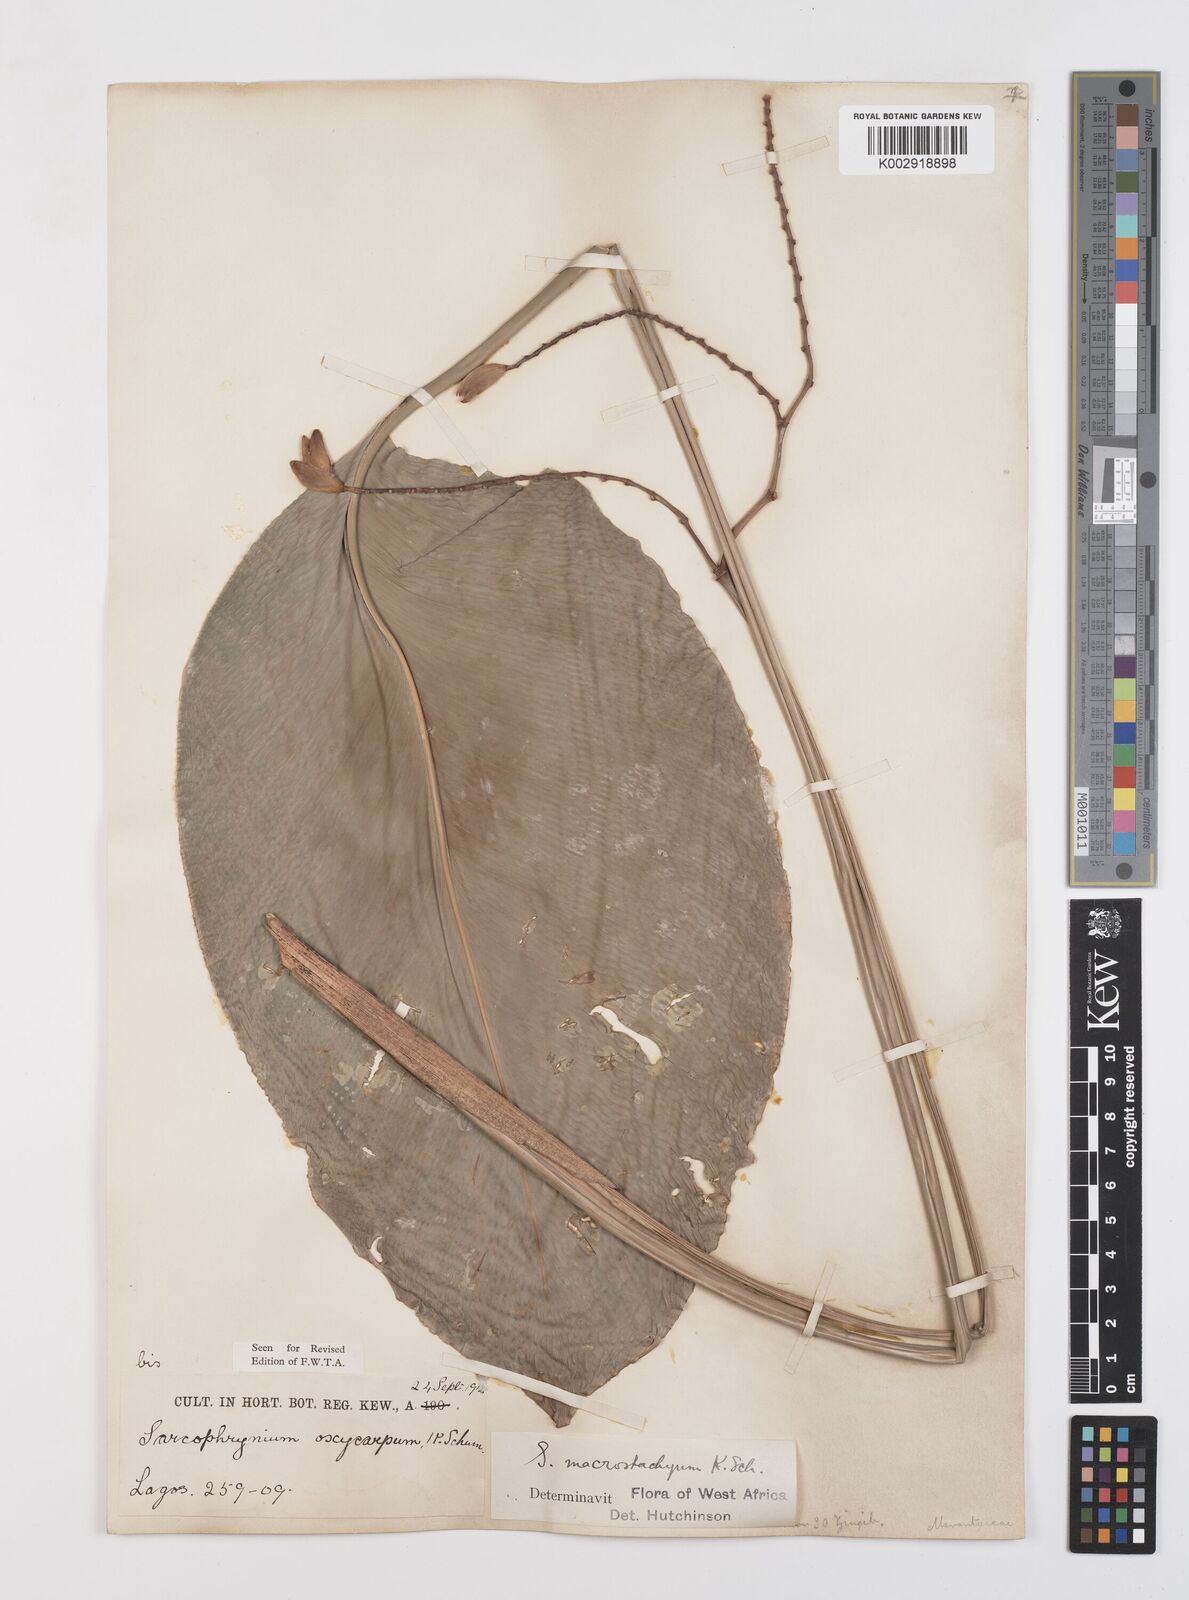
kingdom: Plantae
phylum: Tracheophyta
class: Liliopsida
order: Zingiberales
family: Marantaceae
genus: Megaphrynium
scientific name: Megaphrynium macrostachyum
